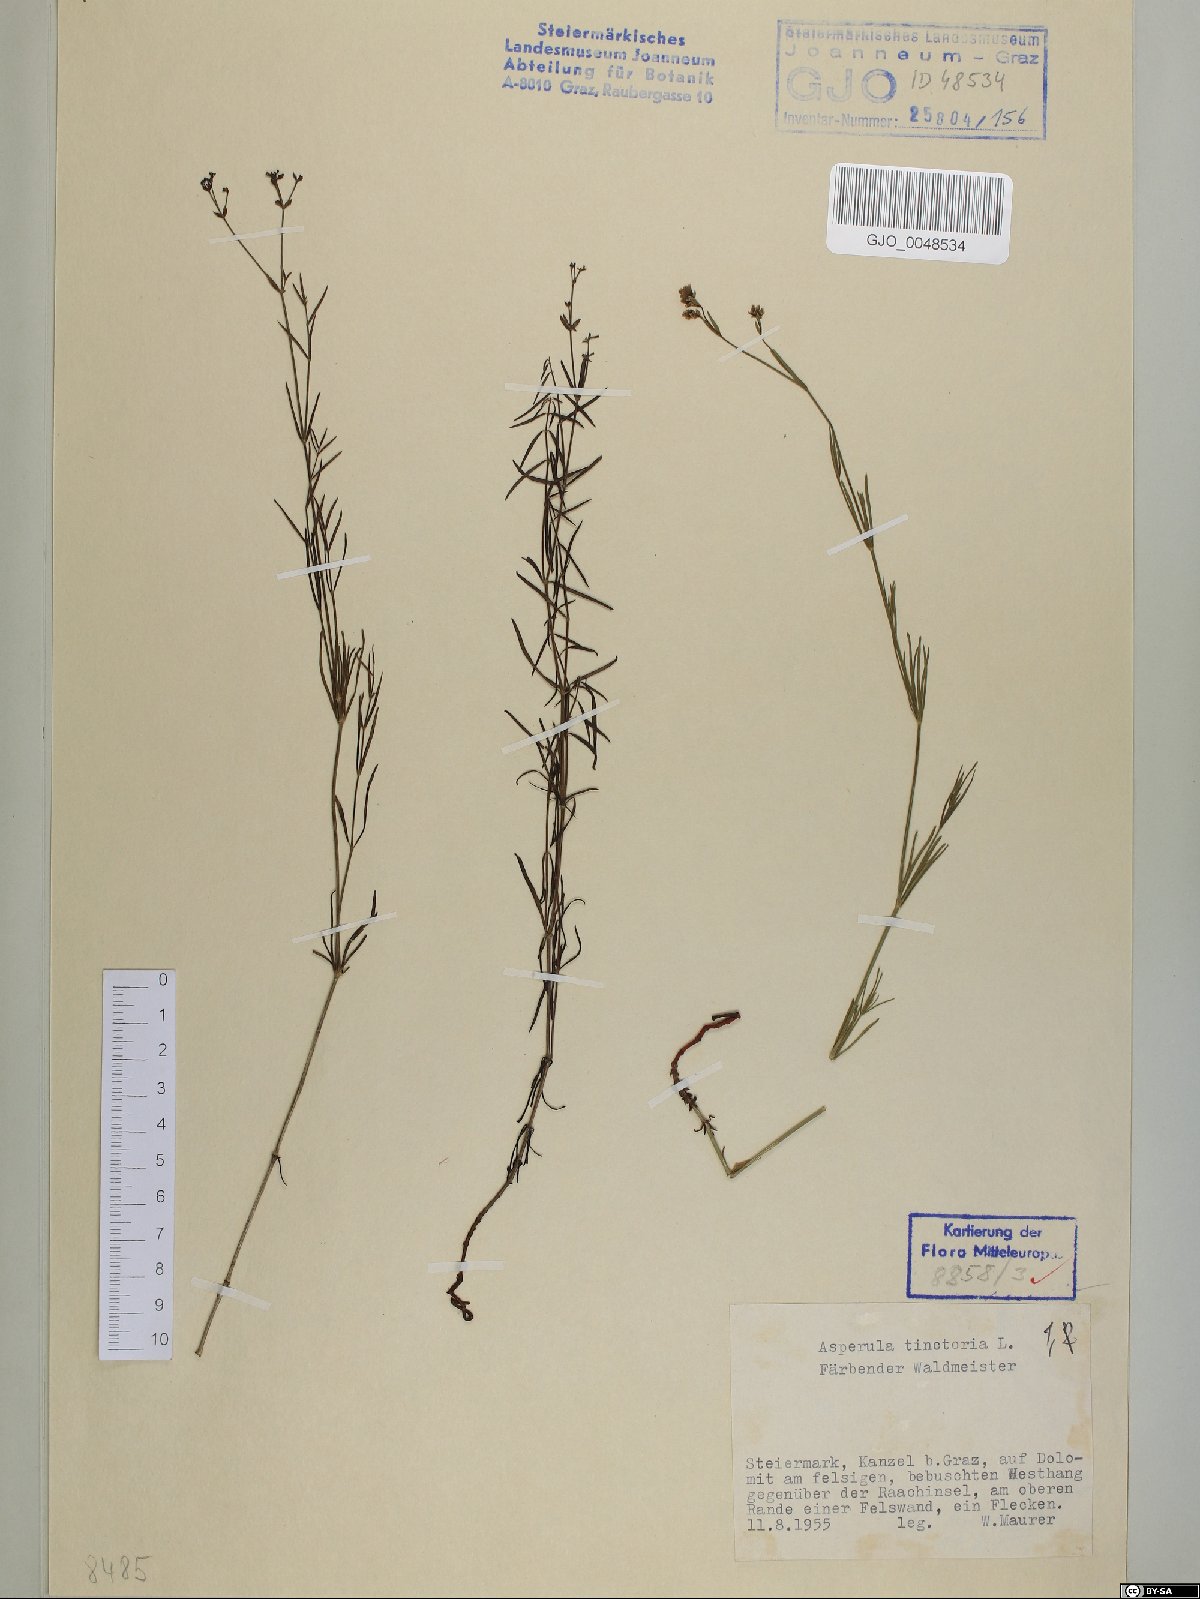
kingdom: Plantae
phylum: Tracheophyta
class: Magnoliopsida
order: Gentianales
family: Rubiaceae
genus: Asperula
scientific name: Asperula tinctoria
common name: Dyer's woodruff
